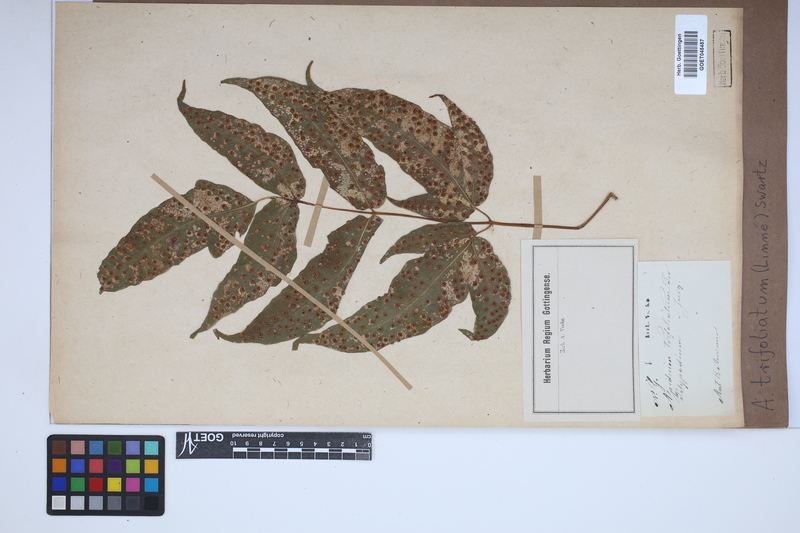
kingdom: Plantae
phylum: Tracheophyta
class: Polypodiopsida
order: Polypodiales
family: Tectariaceae
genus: Tectaria
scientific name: Tectaria trifoliata
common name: Threeleaf halberd fern
